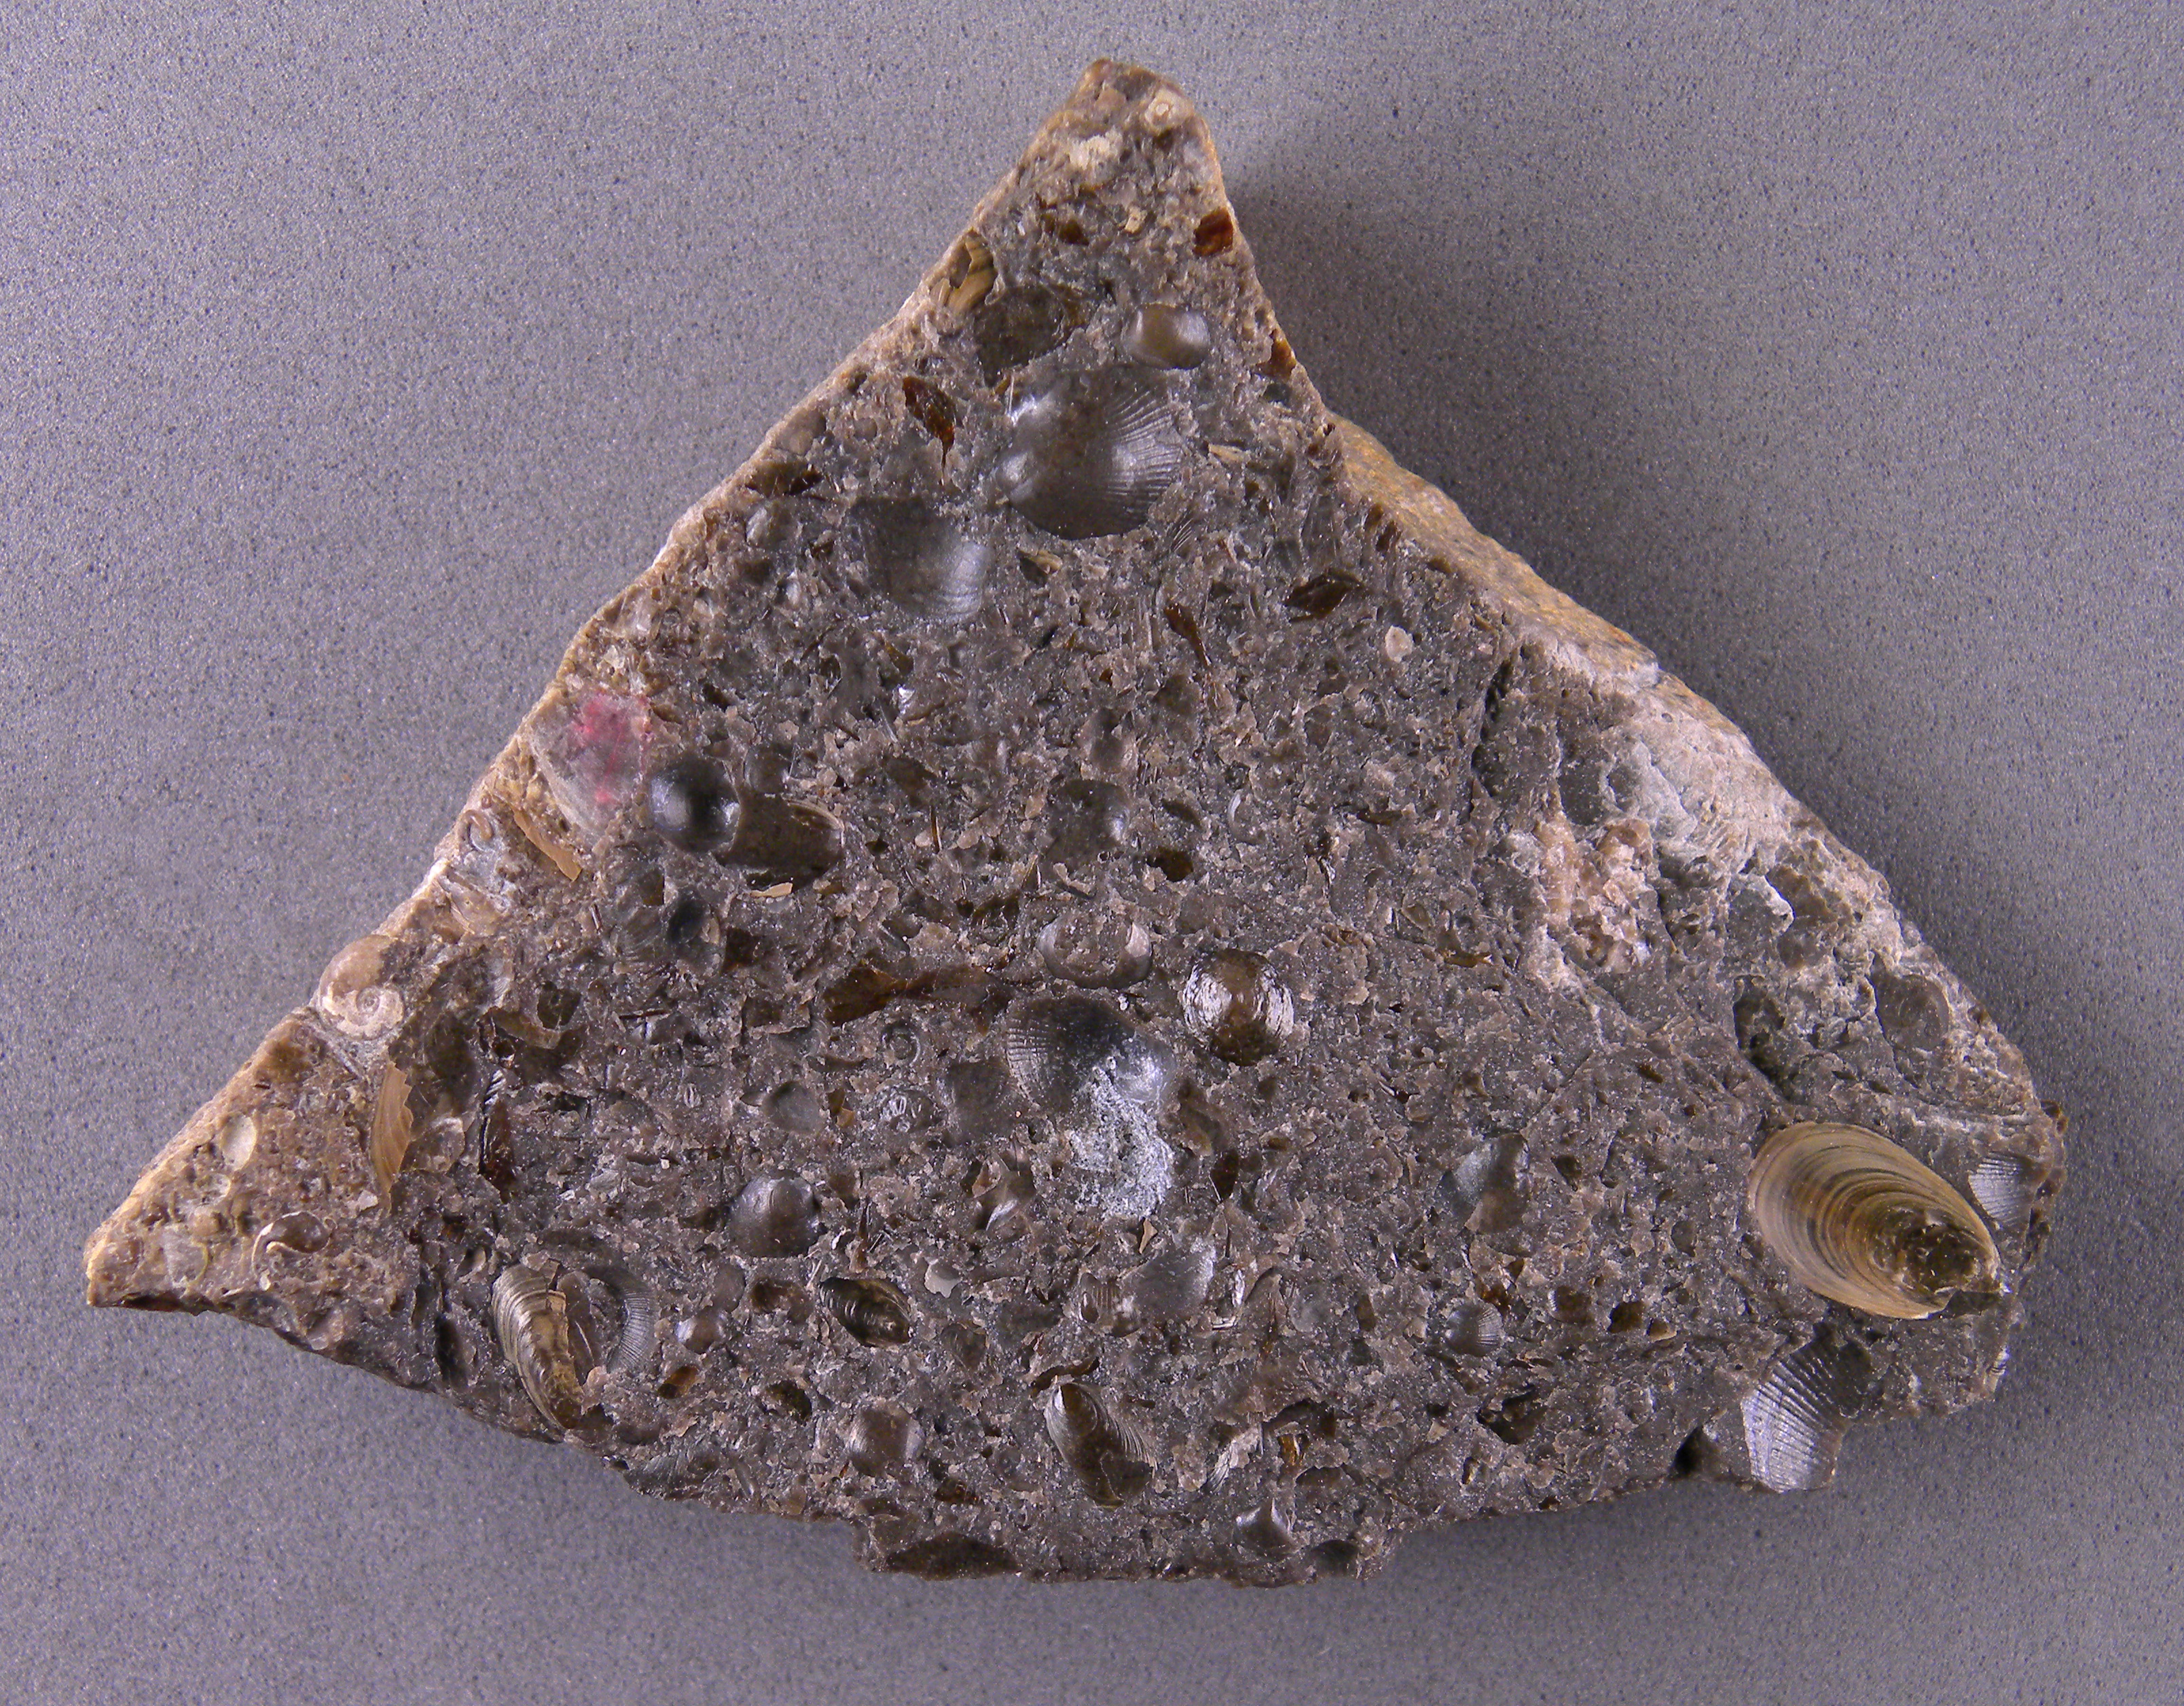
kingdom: Animalia
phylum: Mollusca
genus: Simoniceras
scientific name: Simoniceras
